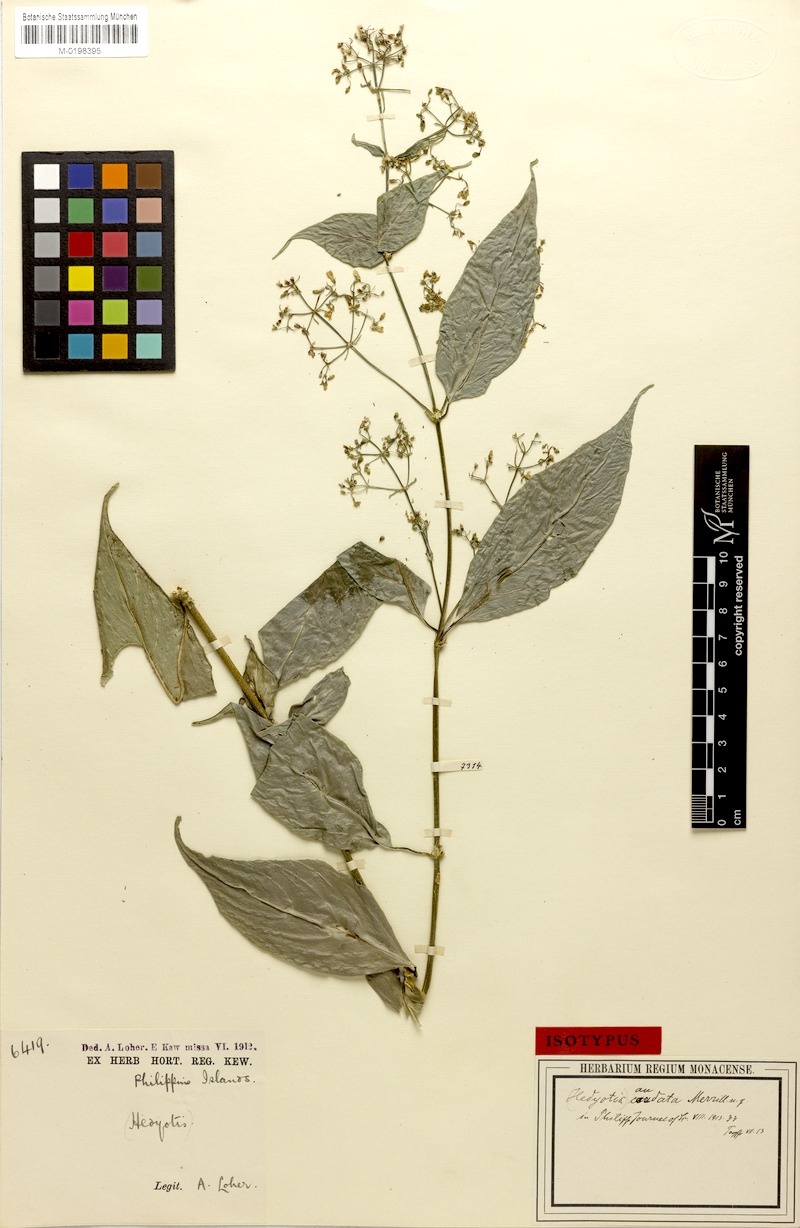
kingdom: Plantae
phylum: Tracheophyta
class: Magnoliopsida
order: Gentianales
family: Rubiaceae
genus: Hedyotis
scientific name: Hedyotis caudata
